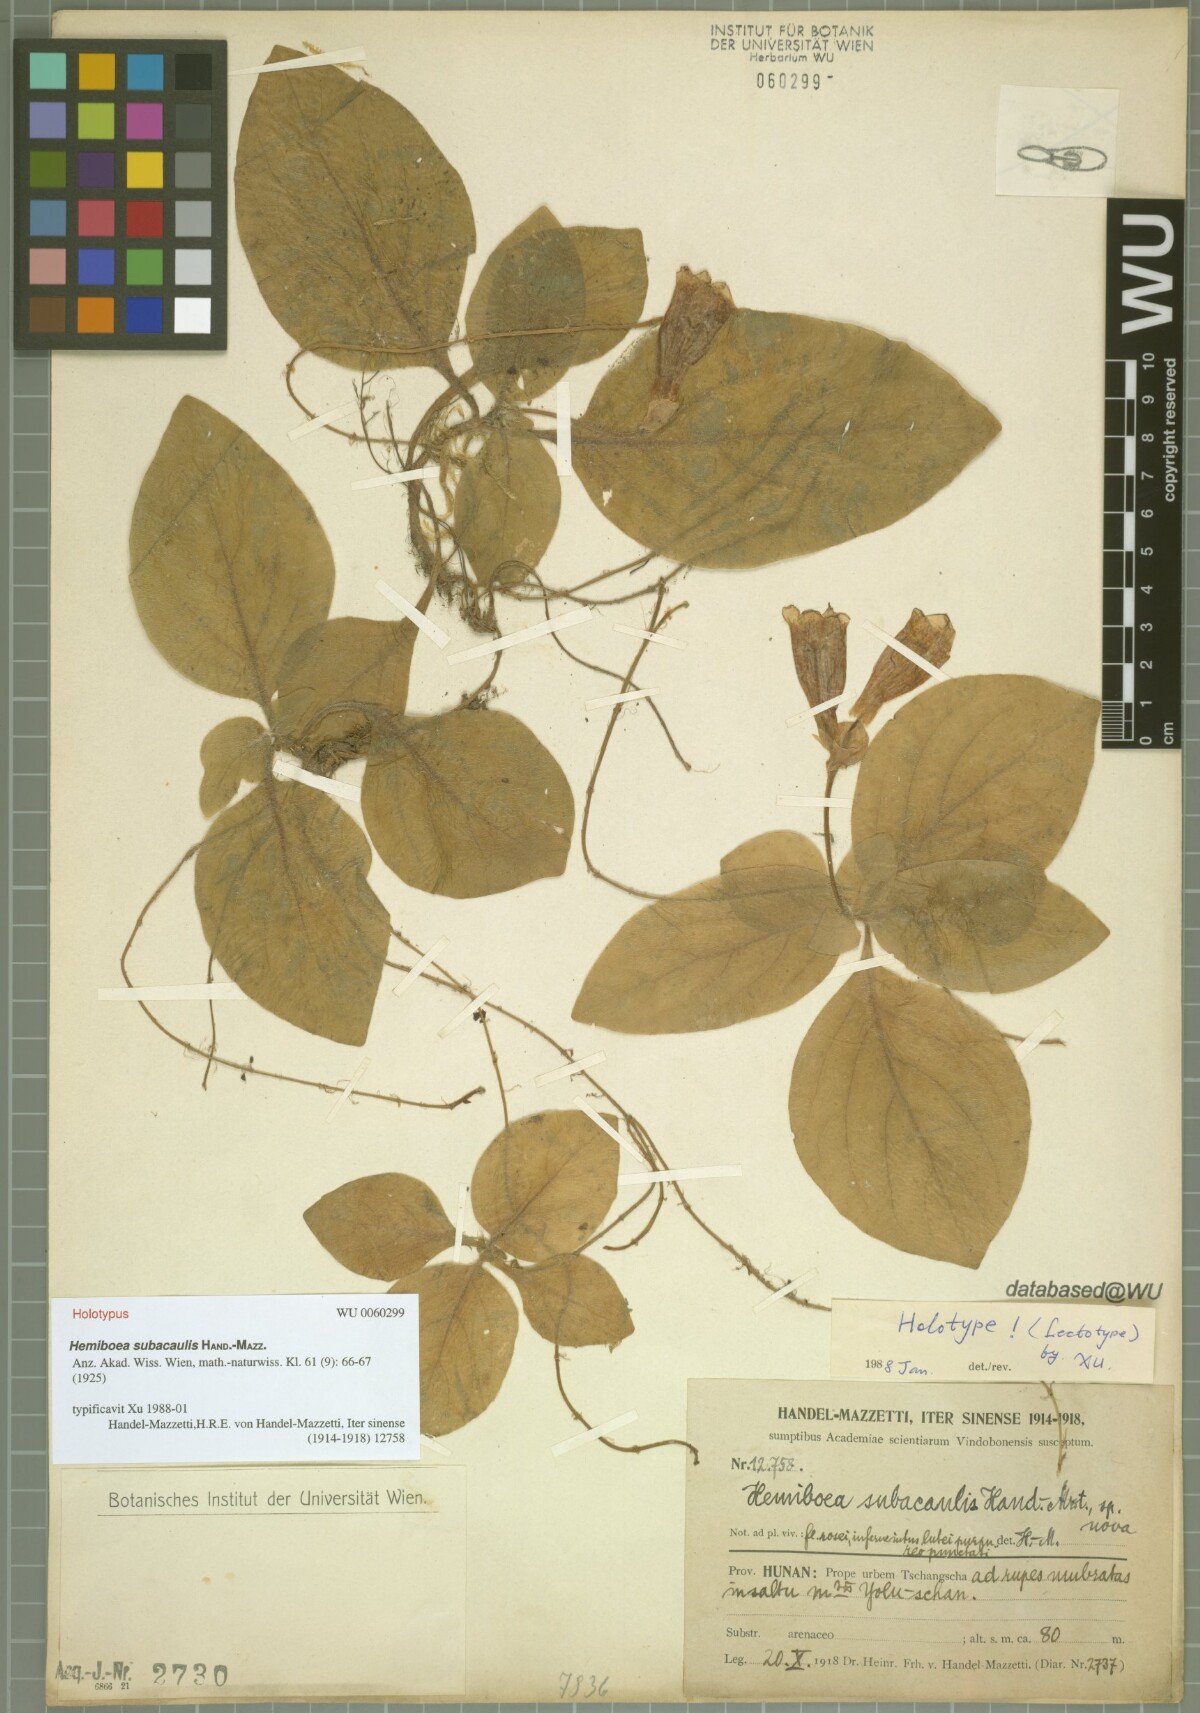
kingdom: Plantae
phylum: Tracheophyta
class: Magnoliopsida
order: Lamiales
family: Gesneriaceae
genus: Hemiboea
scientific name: Hemiboea subacaulis
